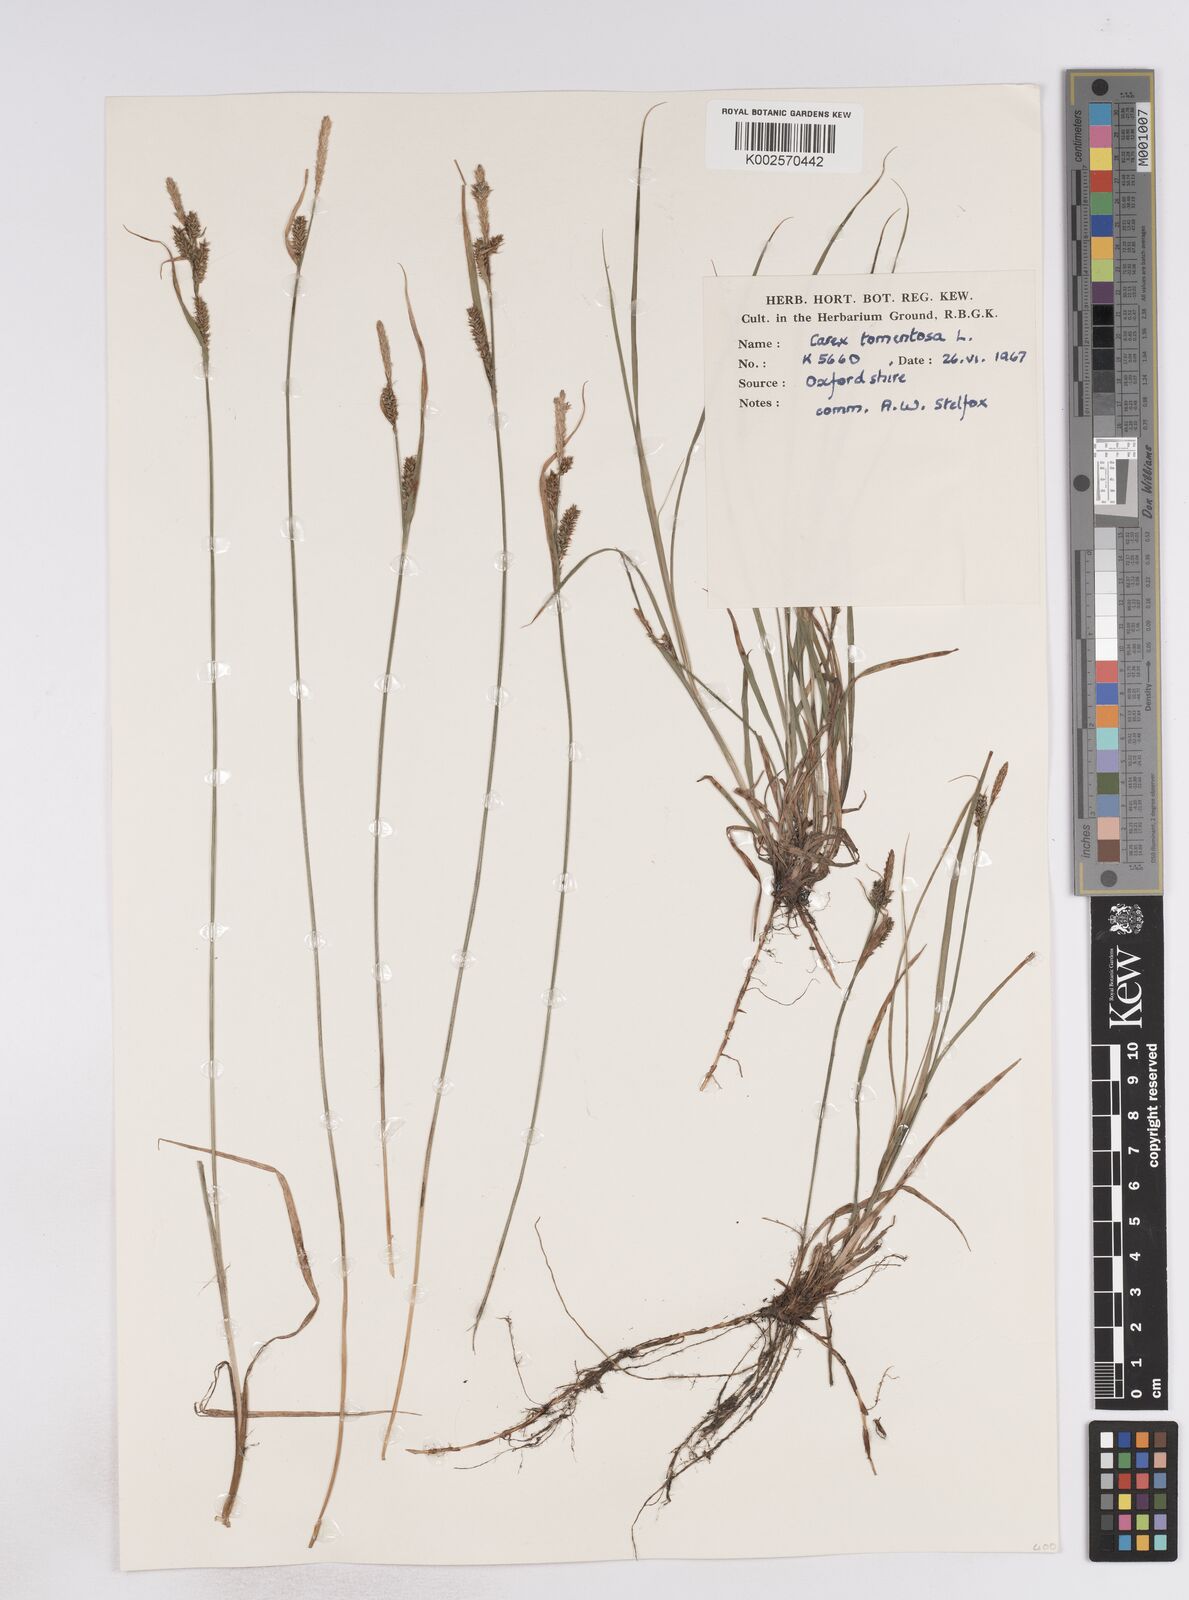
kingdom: Plantae
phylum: Tracheophyta
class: Liliopsida
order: Poales
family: Cyperaceae
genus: Carex
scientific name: Carex montana
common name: Soft-leaved sedge
